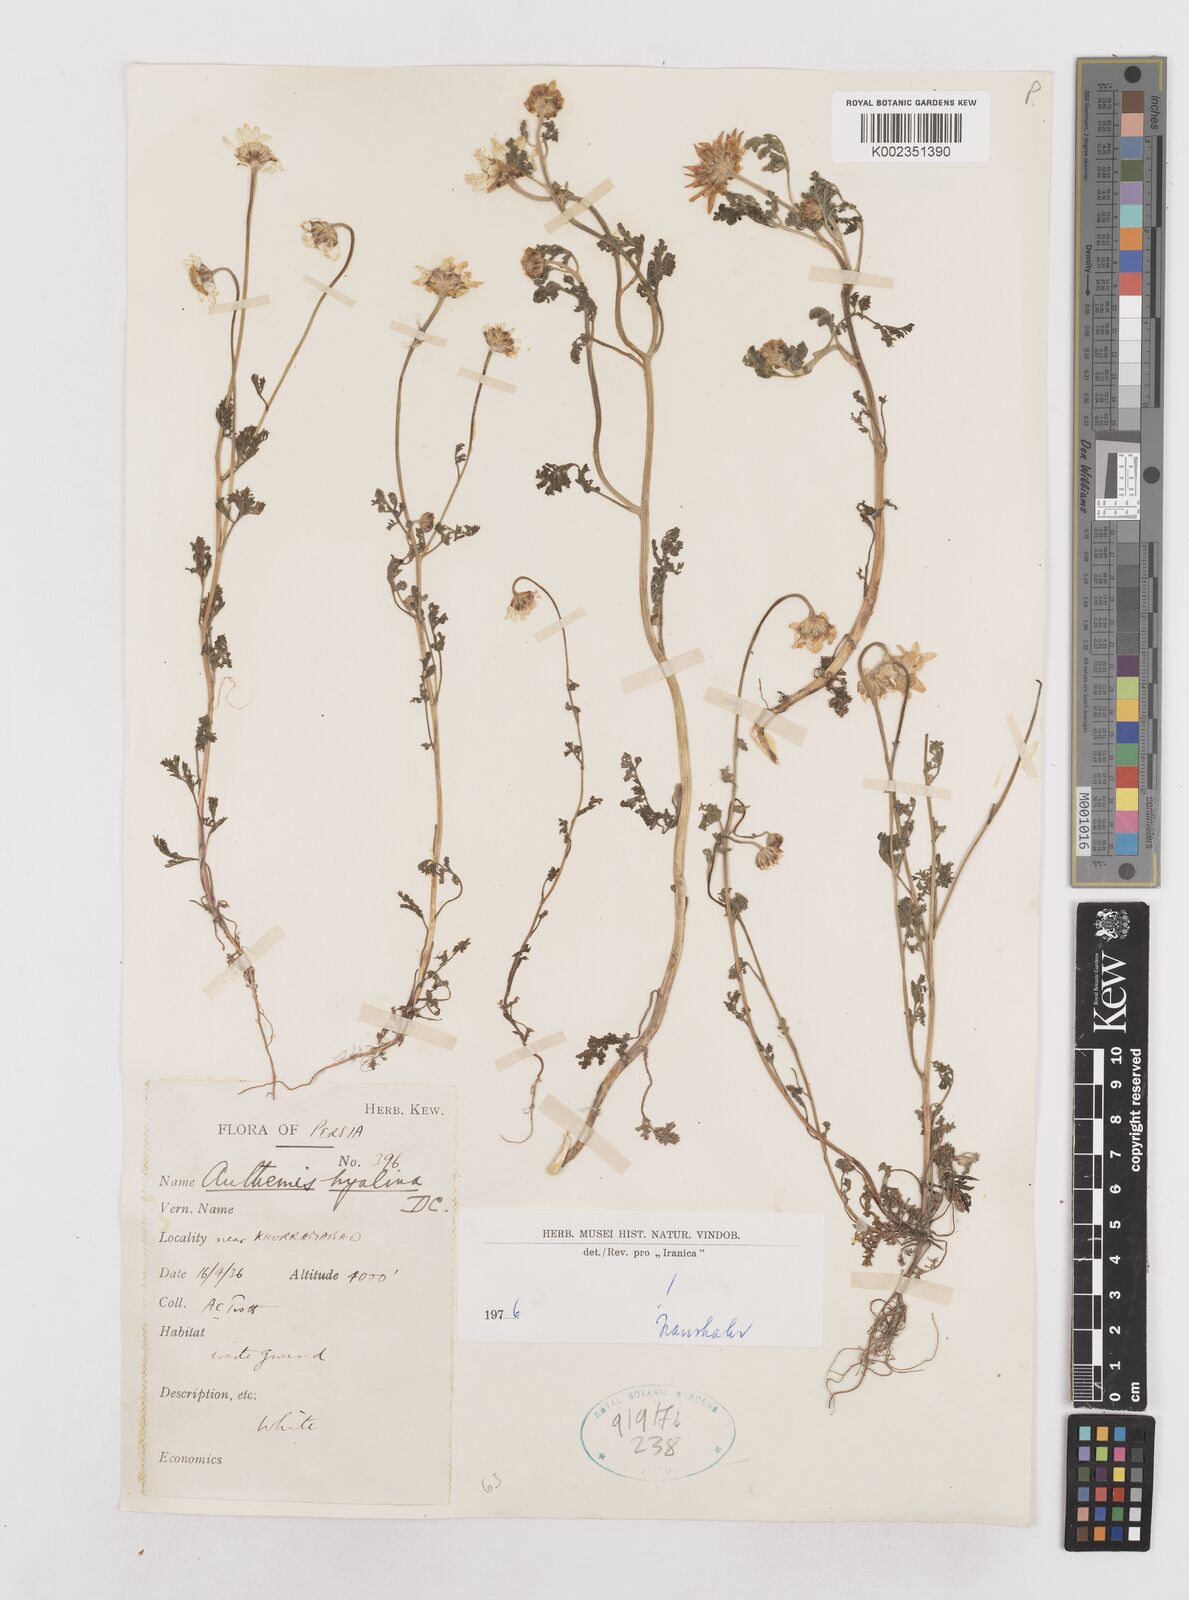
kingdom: Plantae
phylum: Tracheophyta
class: Magnoliopsida
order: Asterales
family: Asteraceae
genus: Anthemis
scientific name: Anthemis hyalina
